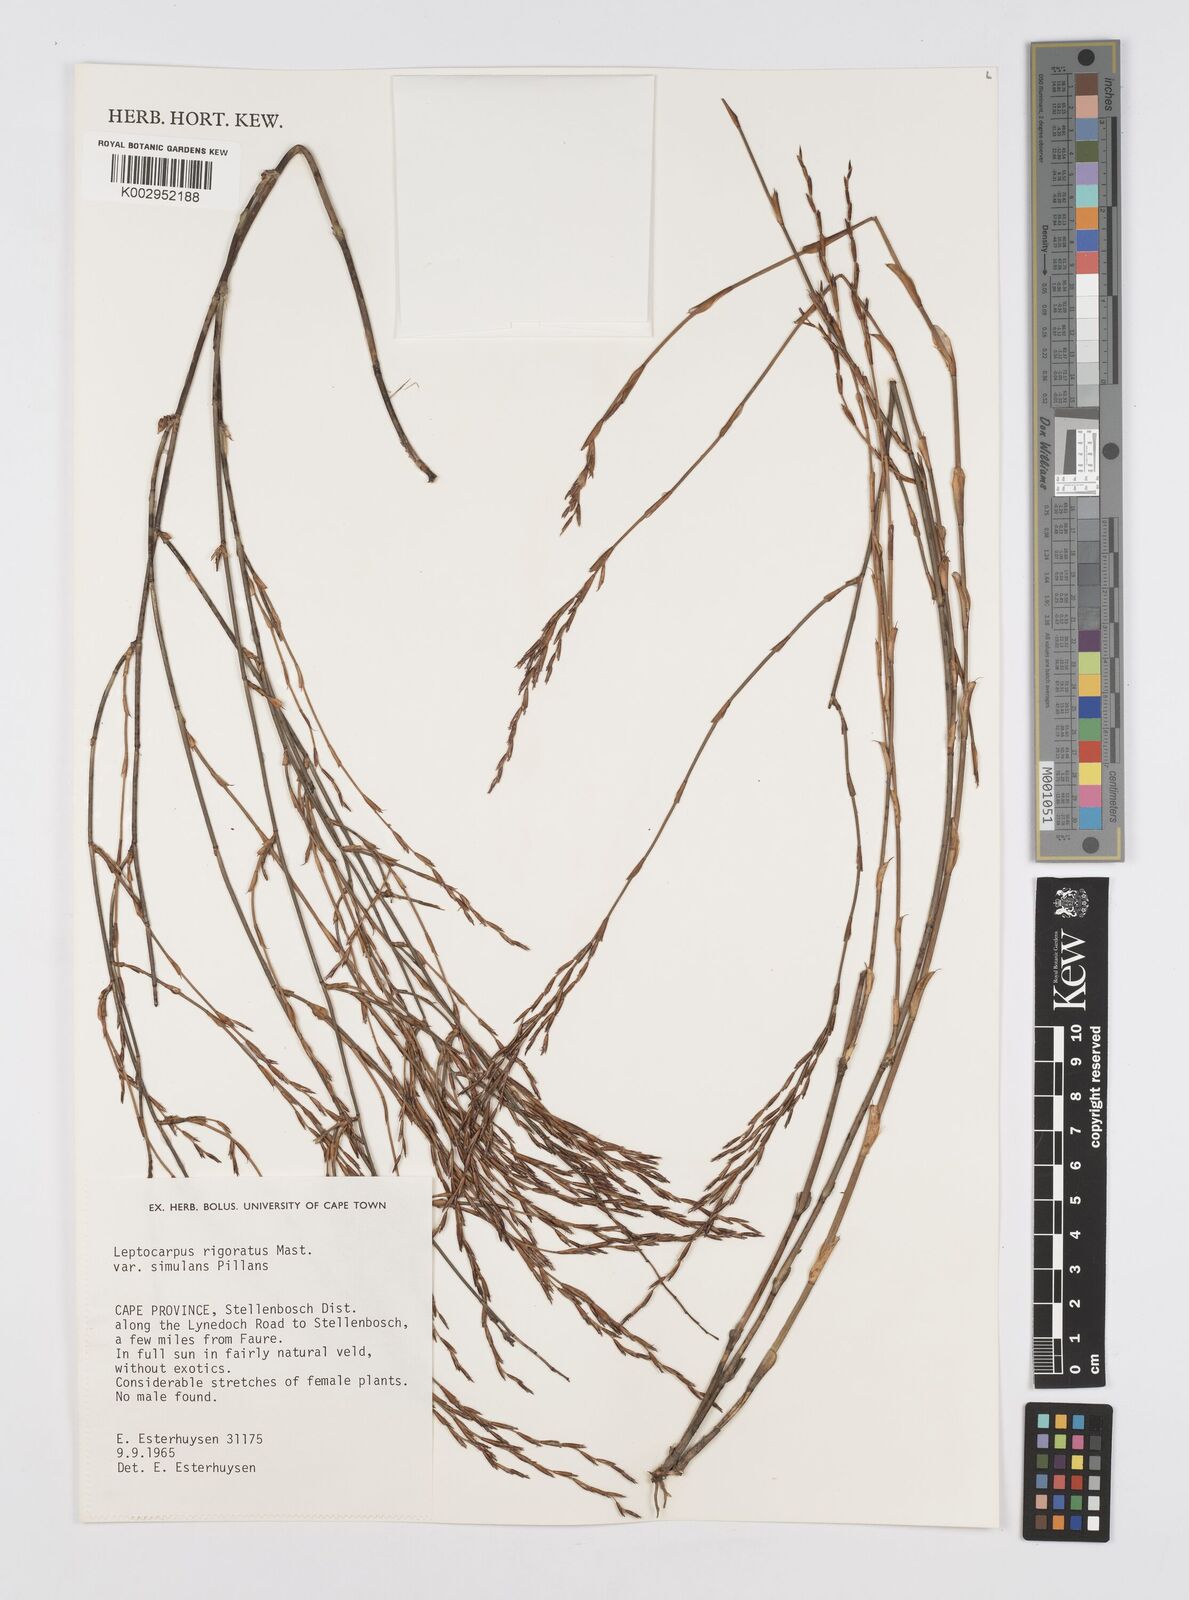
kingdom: Plantae
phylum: Tracheophyta
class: Liliopsida
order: Poales
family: Restionaceae
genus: Restio
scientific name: Restio rigoratus
